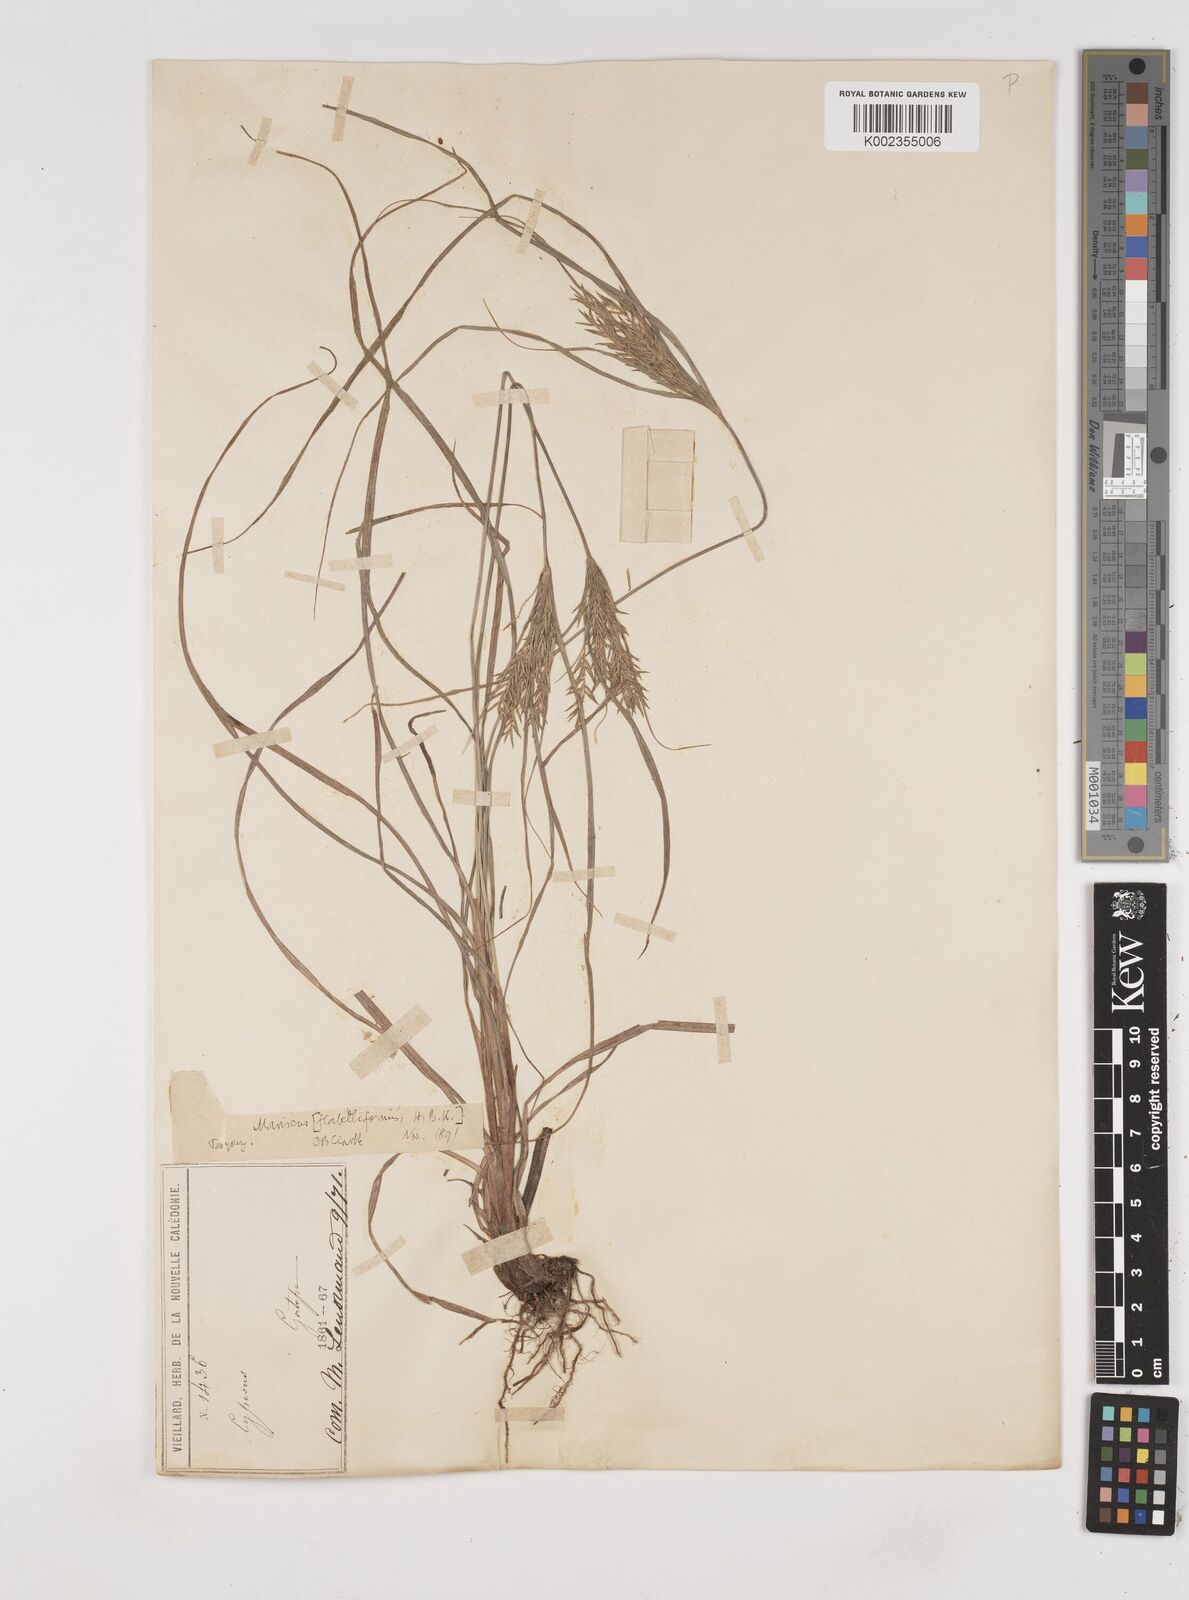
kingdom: Plantae
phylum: Tracheophyta
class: Liliopsida
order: Poales
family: Cyperaceae
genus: Cyperus
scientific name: Cyperus tenuis
